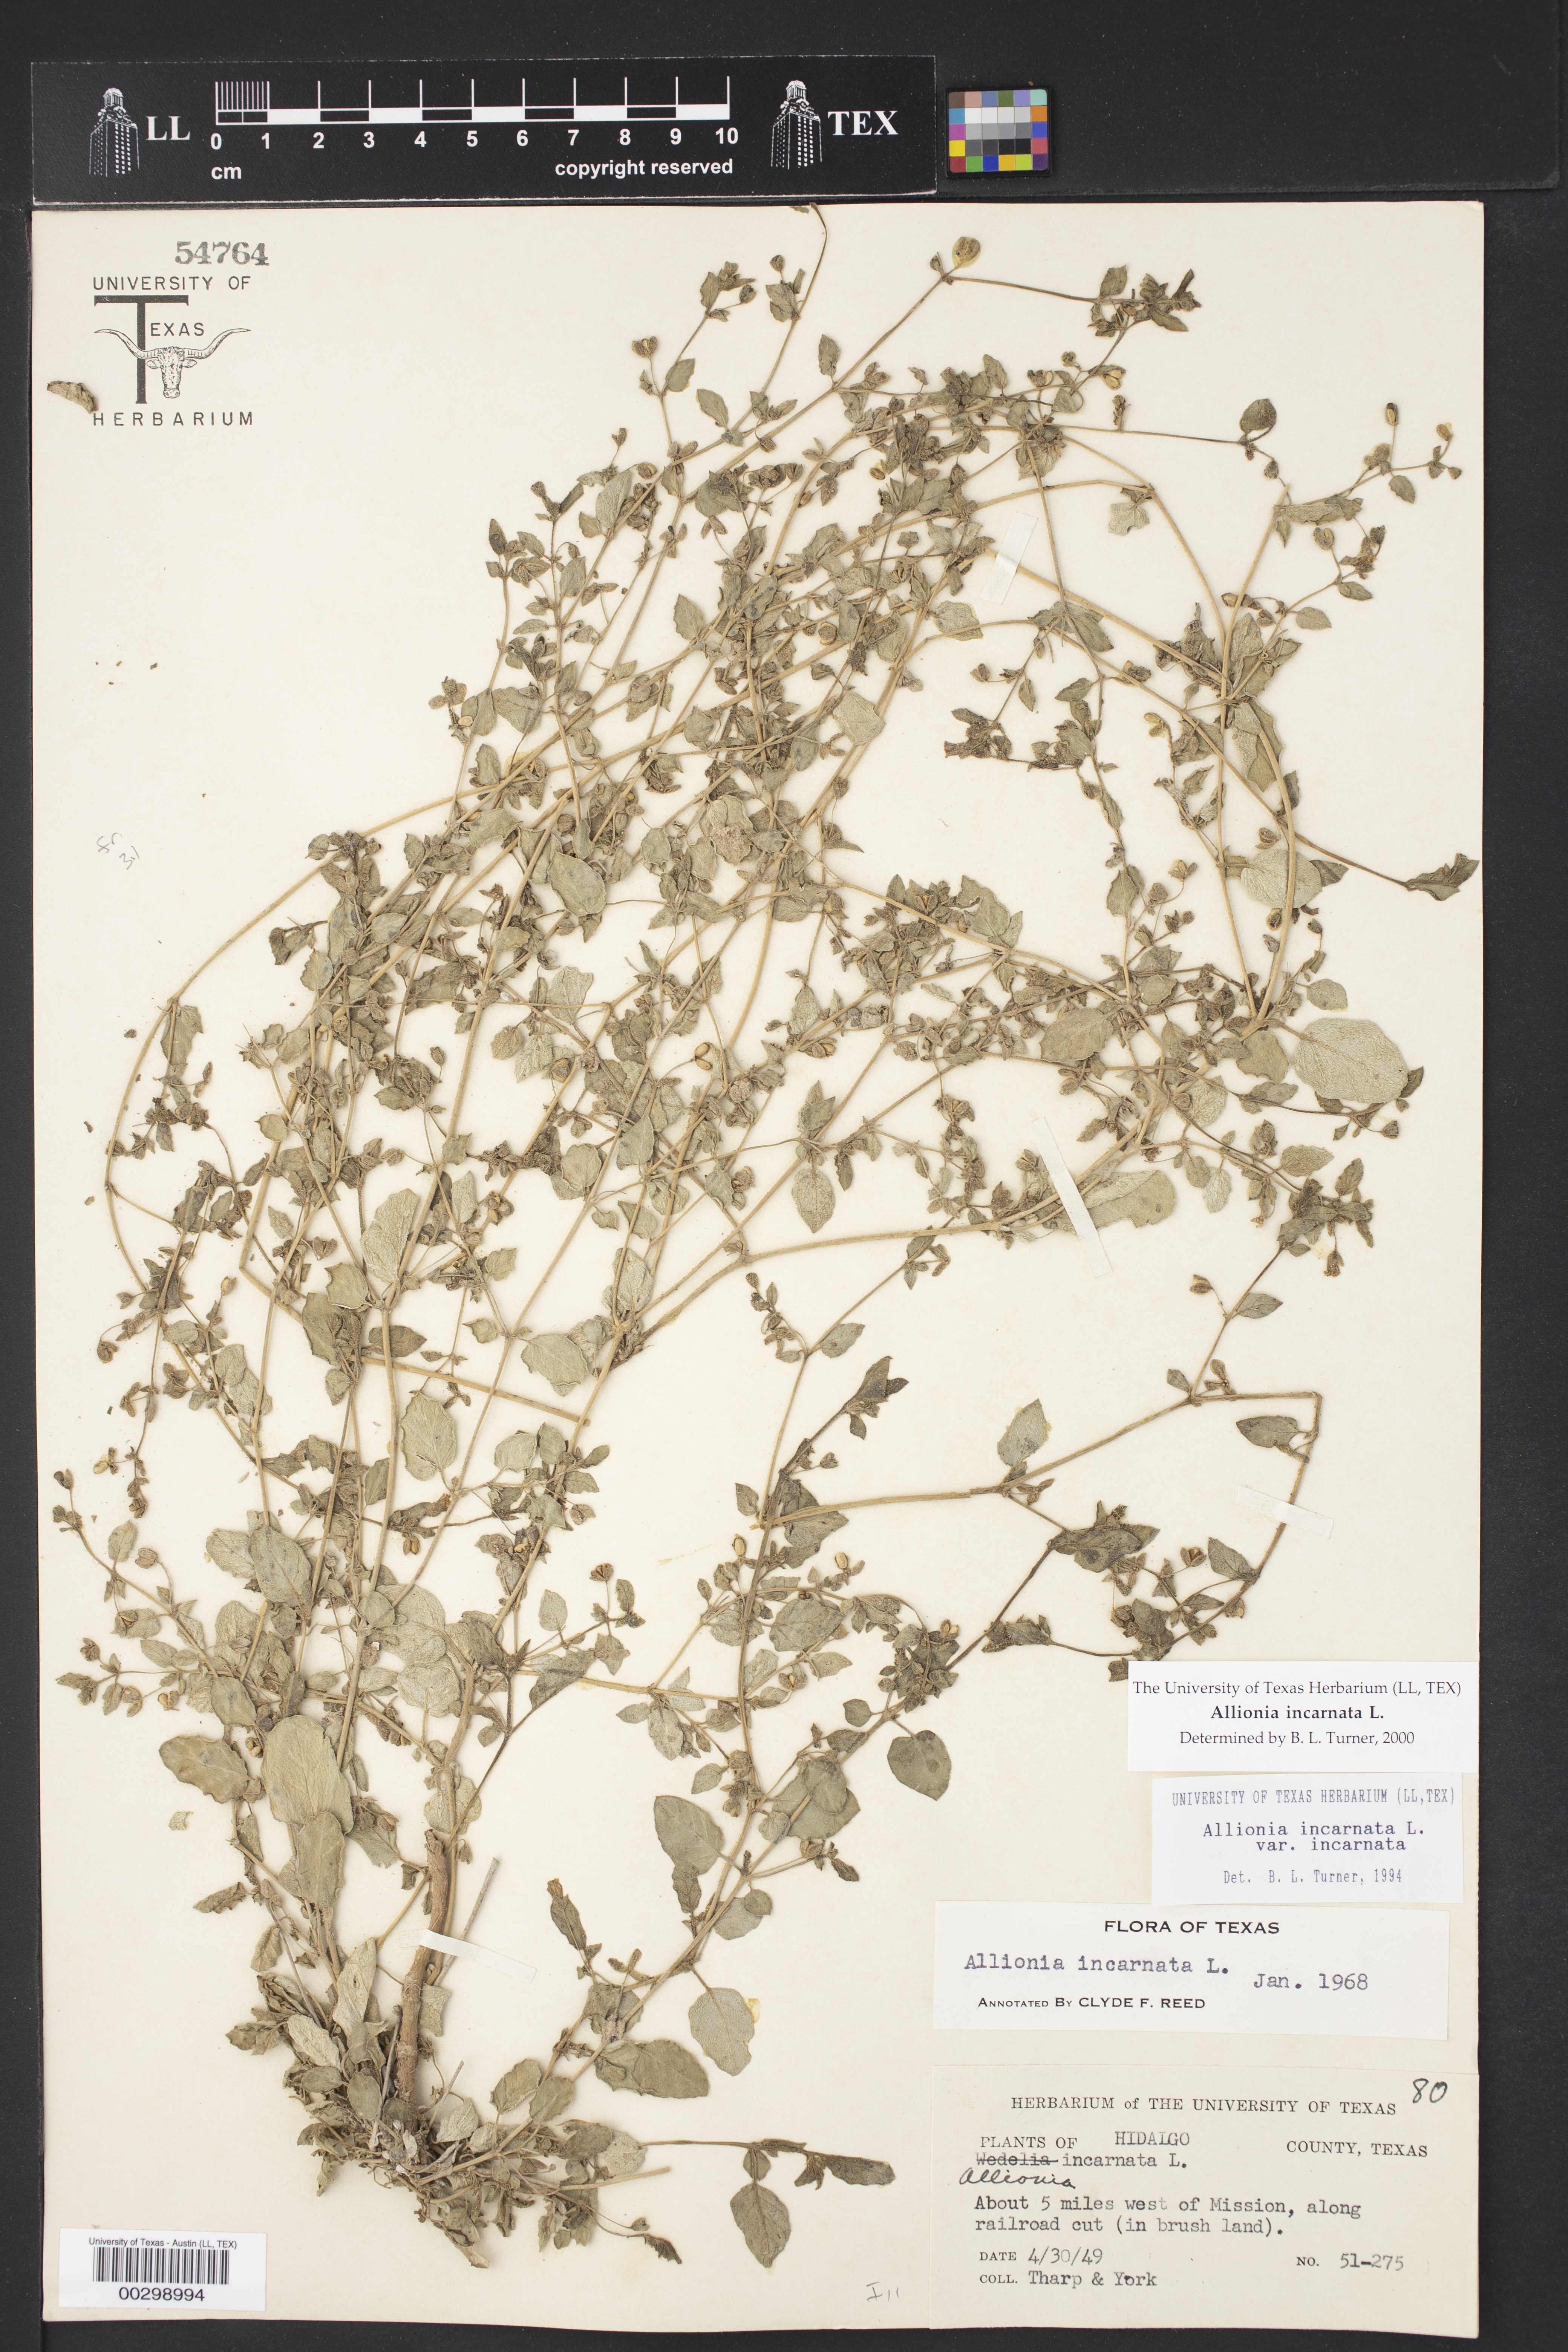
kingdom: Plantae
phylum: Tracheophyta
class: Magnoliopsida
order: Caryophyllales
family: Nyctaginaceae
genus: Allionia
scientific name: Allionia incarnata
